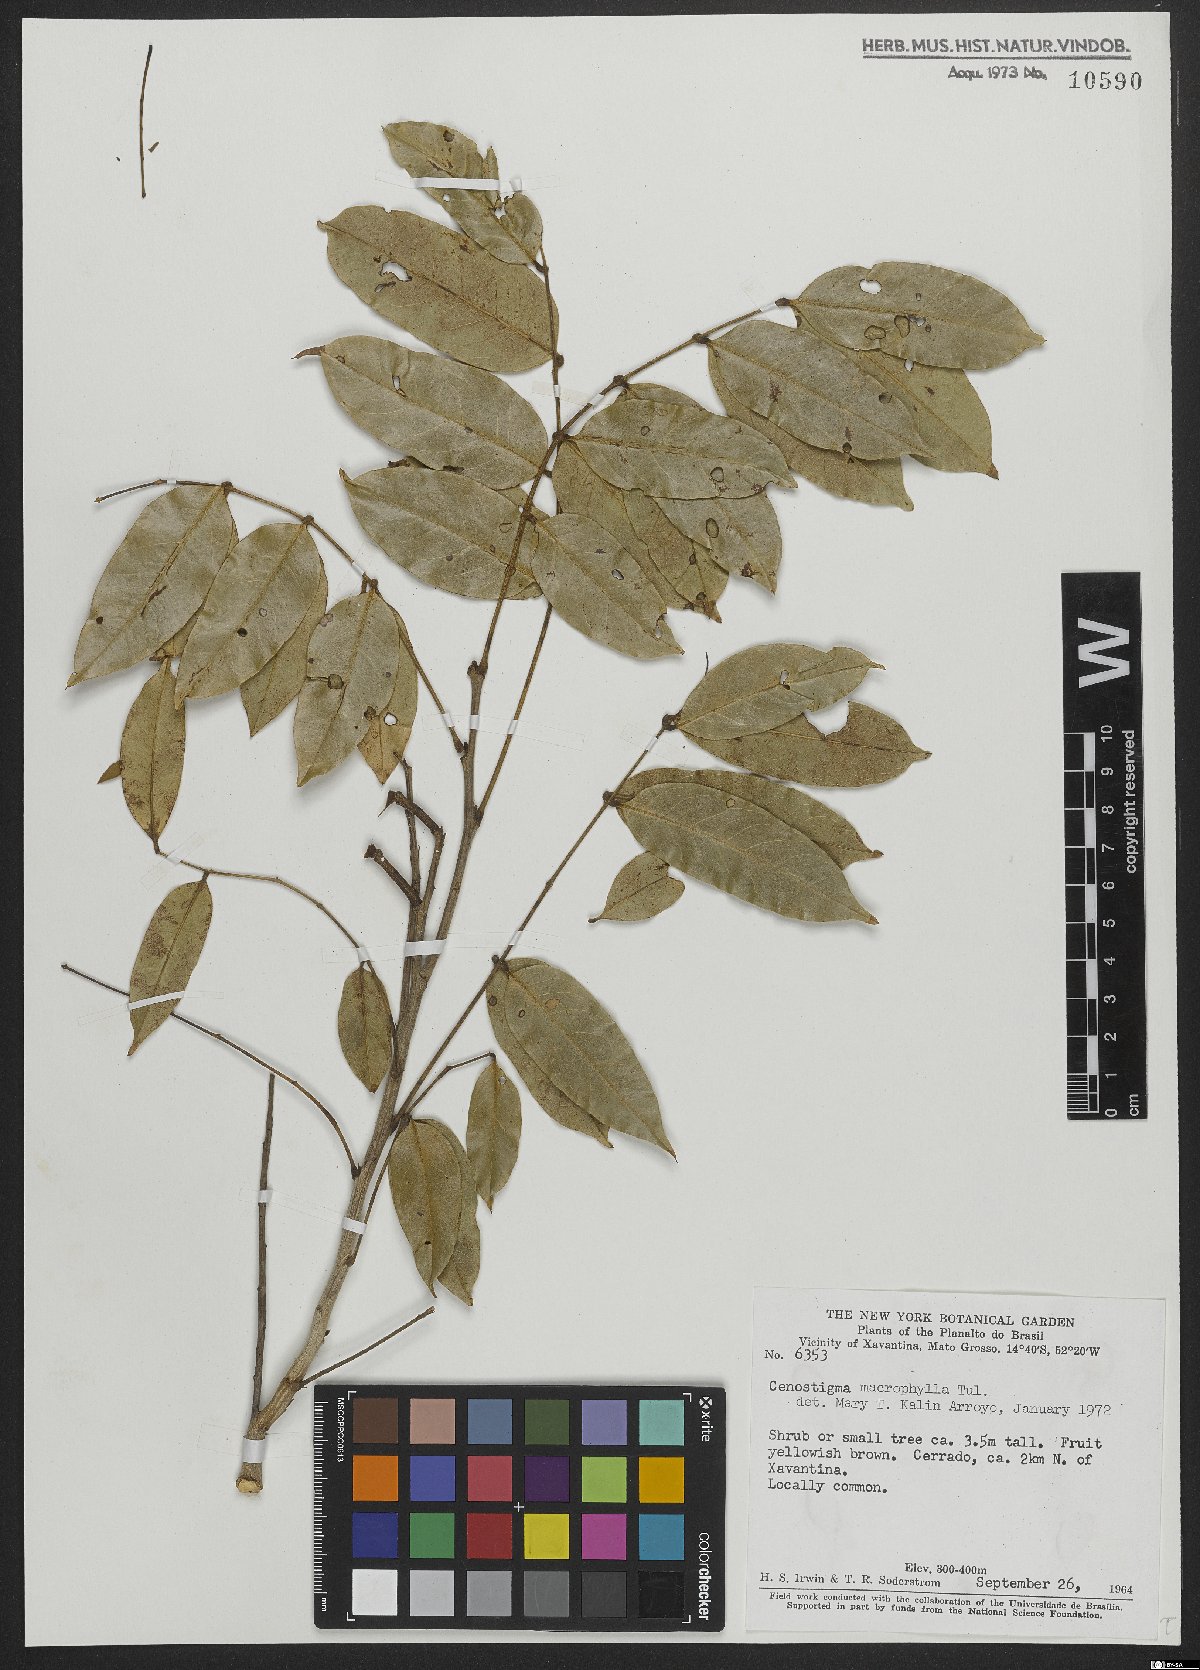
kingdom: Plantae
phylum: Tracheophyta
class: Magnoliopsida
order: Fabales
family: Fabaceae
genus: Cenostigma
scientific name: Cenostigma macrophyllum
